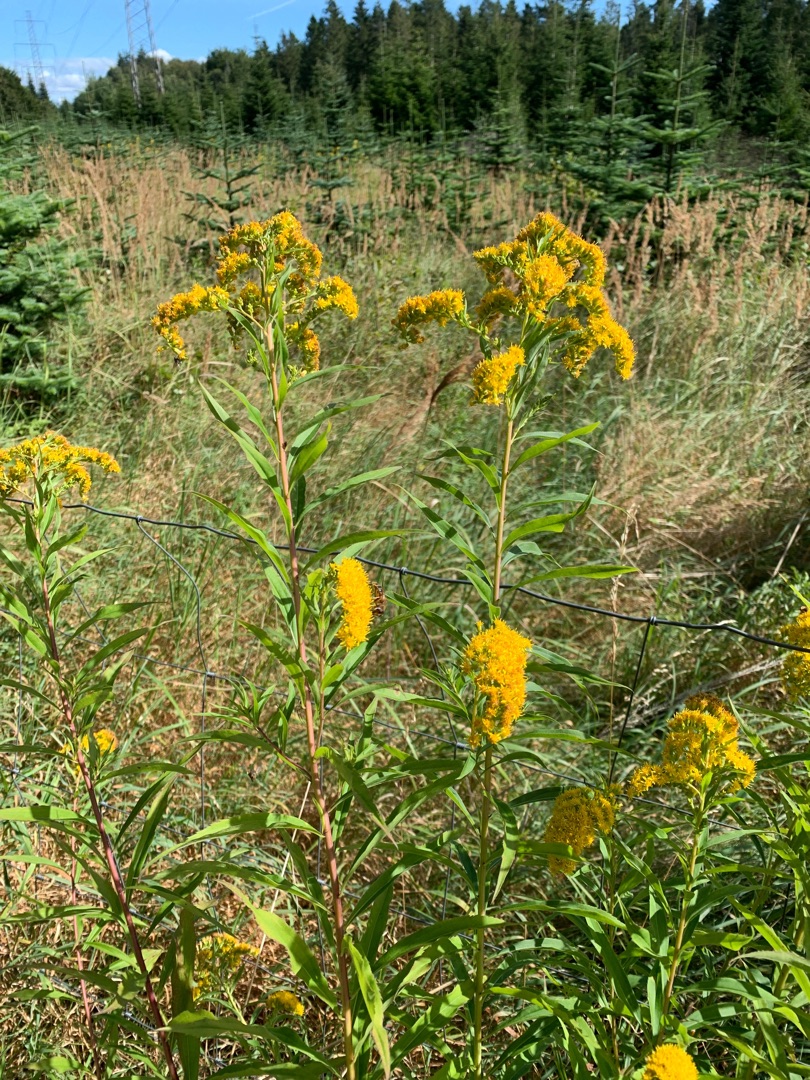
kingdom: Plantae
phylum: Tracheophyta
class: Magnoliopsida
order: Asterales
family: Asteraceae
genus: Solidago
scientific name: Solidago gigantea
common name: Sildig gyldenris
